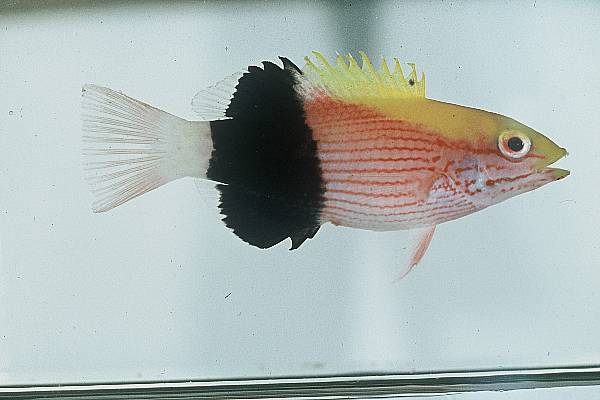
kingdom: Animalia
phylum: Chordata
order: Perciformes
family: Labridae
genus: Bodianus
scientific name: Bodianus bilunulatus
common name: Tarry hogfish
